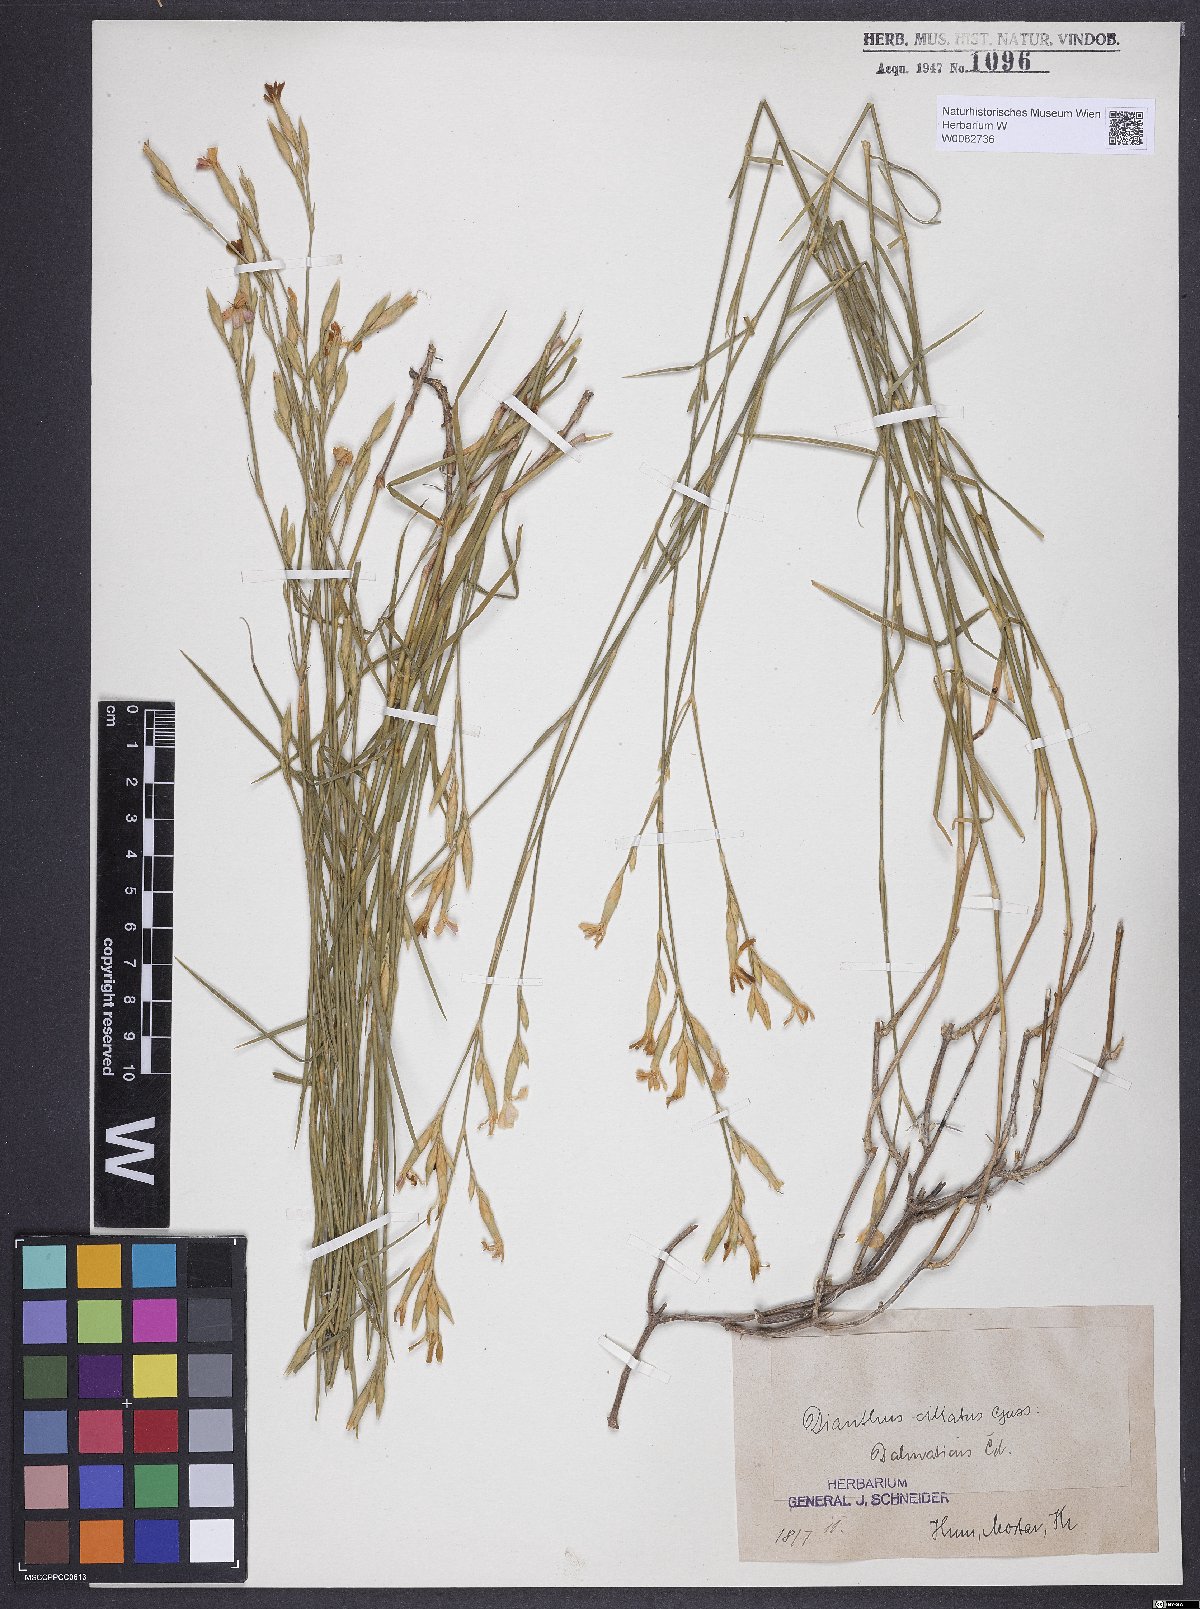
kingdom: Plantae
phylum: Tracheophyta
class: Magnoliopsida
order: Caryophyllales
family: Caryophyllaceae
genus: Dianthus
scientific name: Dianthus ciliatus
